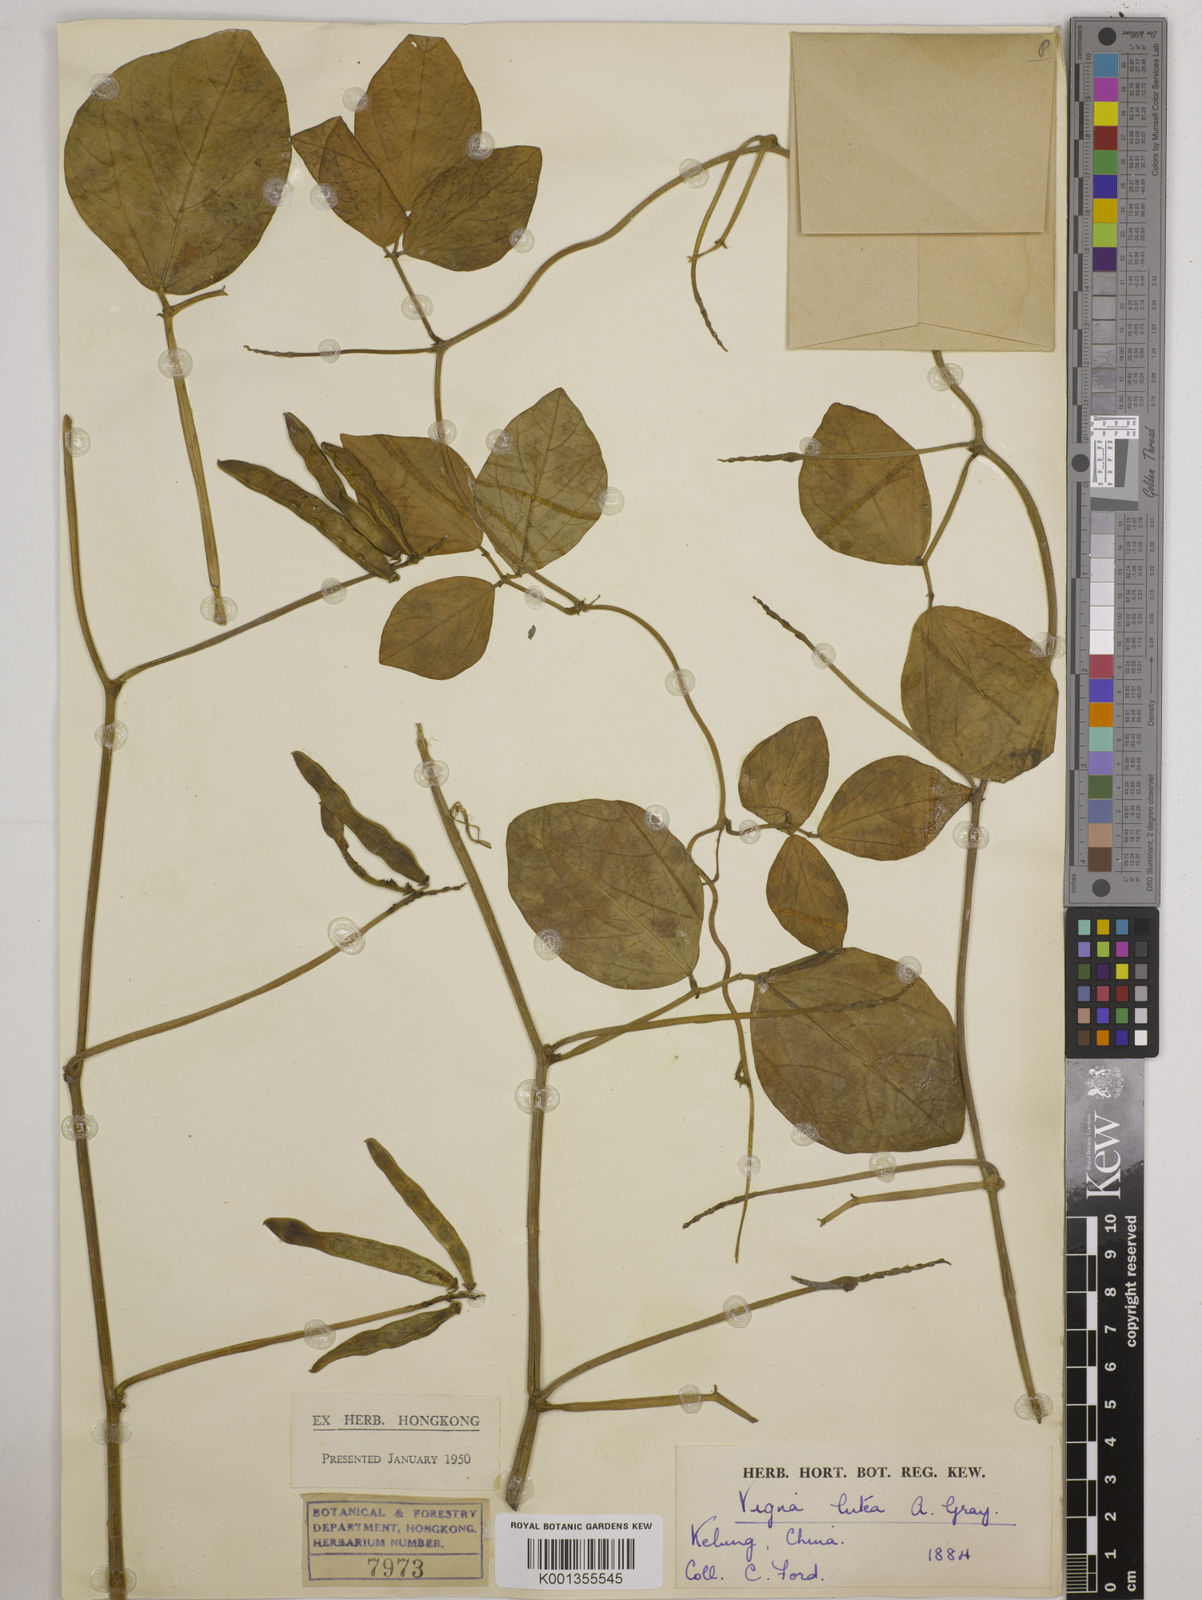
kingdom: Plantae
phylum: Tracheophyta
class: Magnoliopsida
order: Fabales
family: Fabaceae
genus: Vigna
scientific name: Vigna marina
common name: Dune-bean
